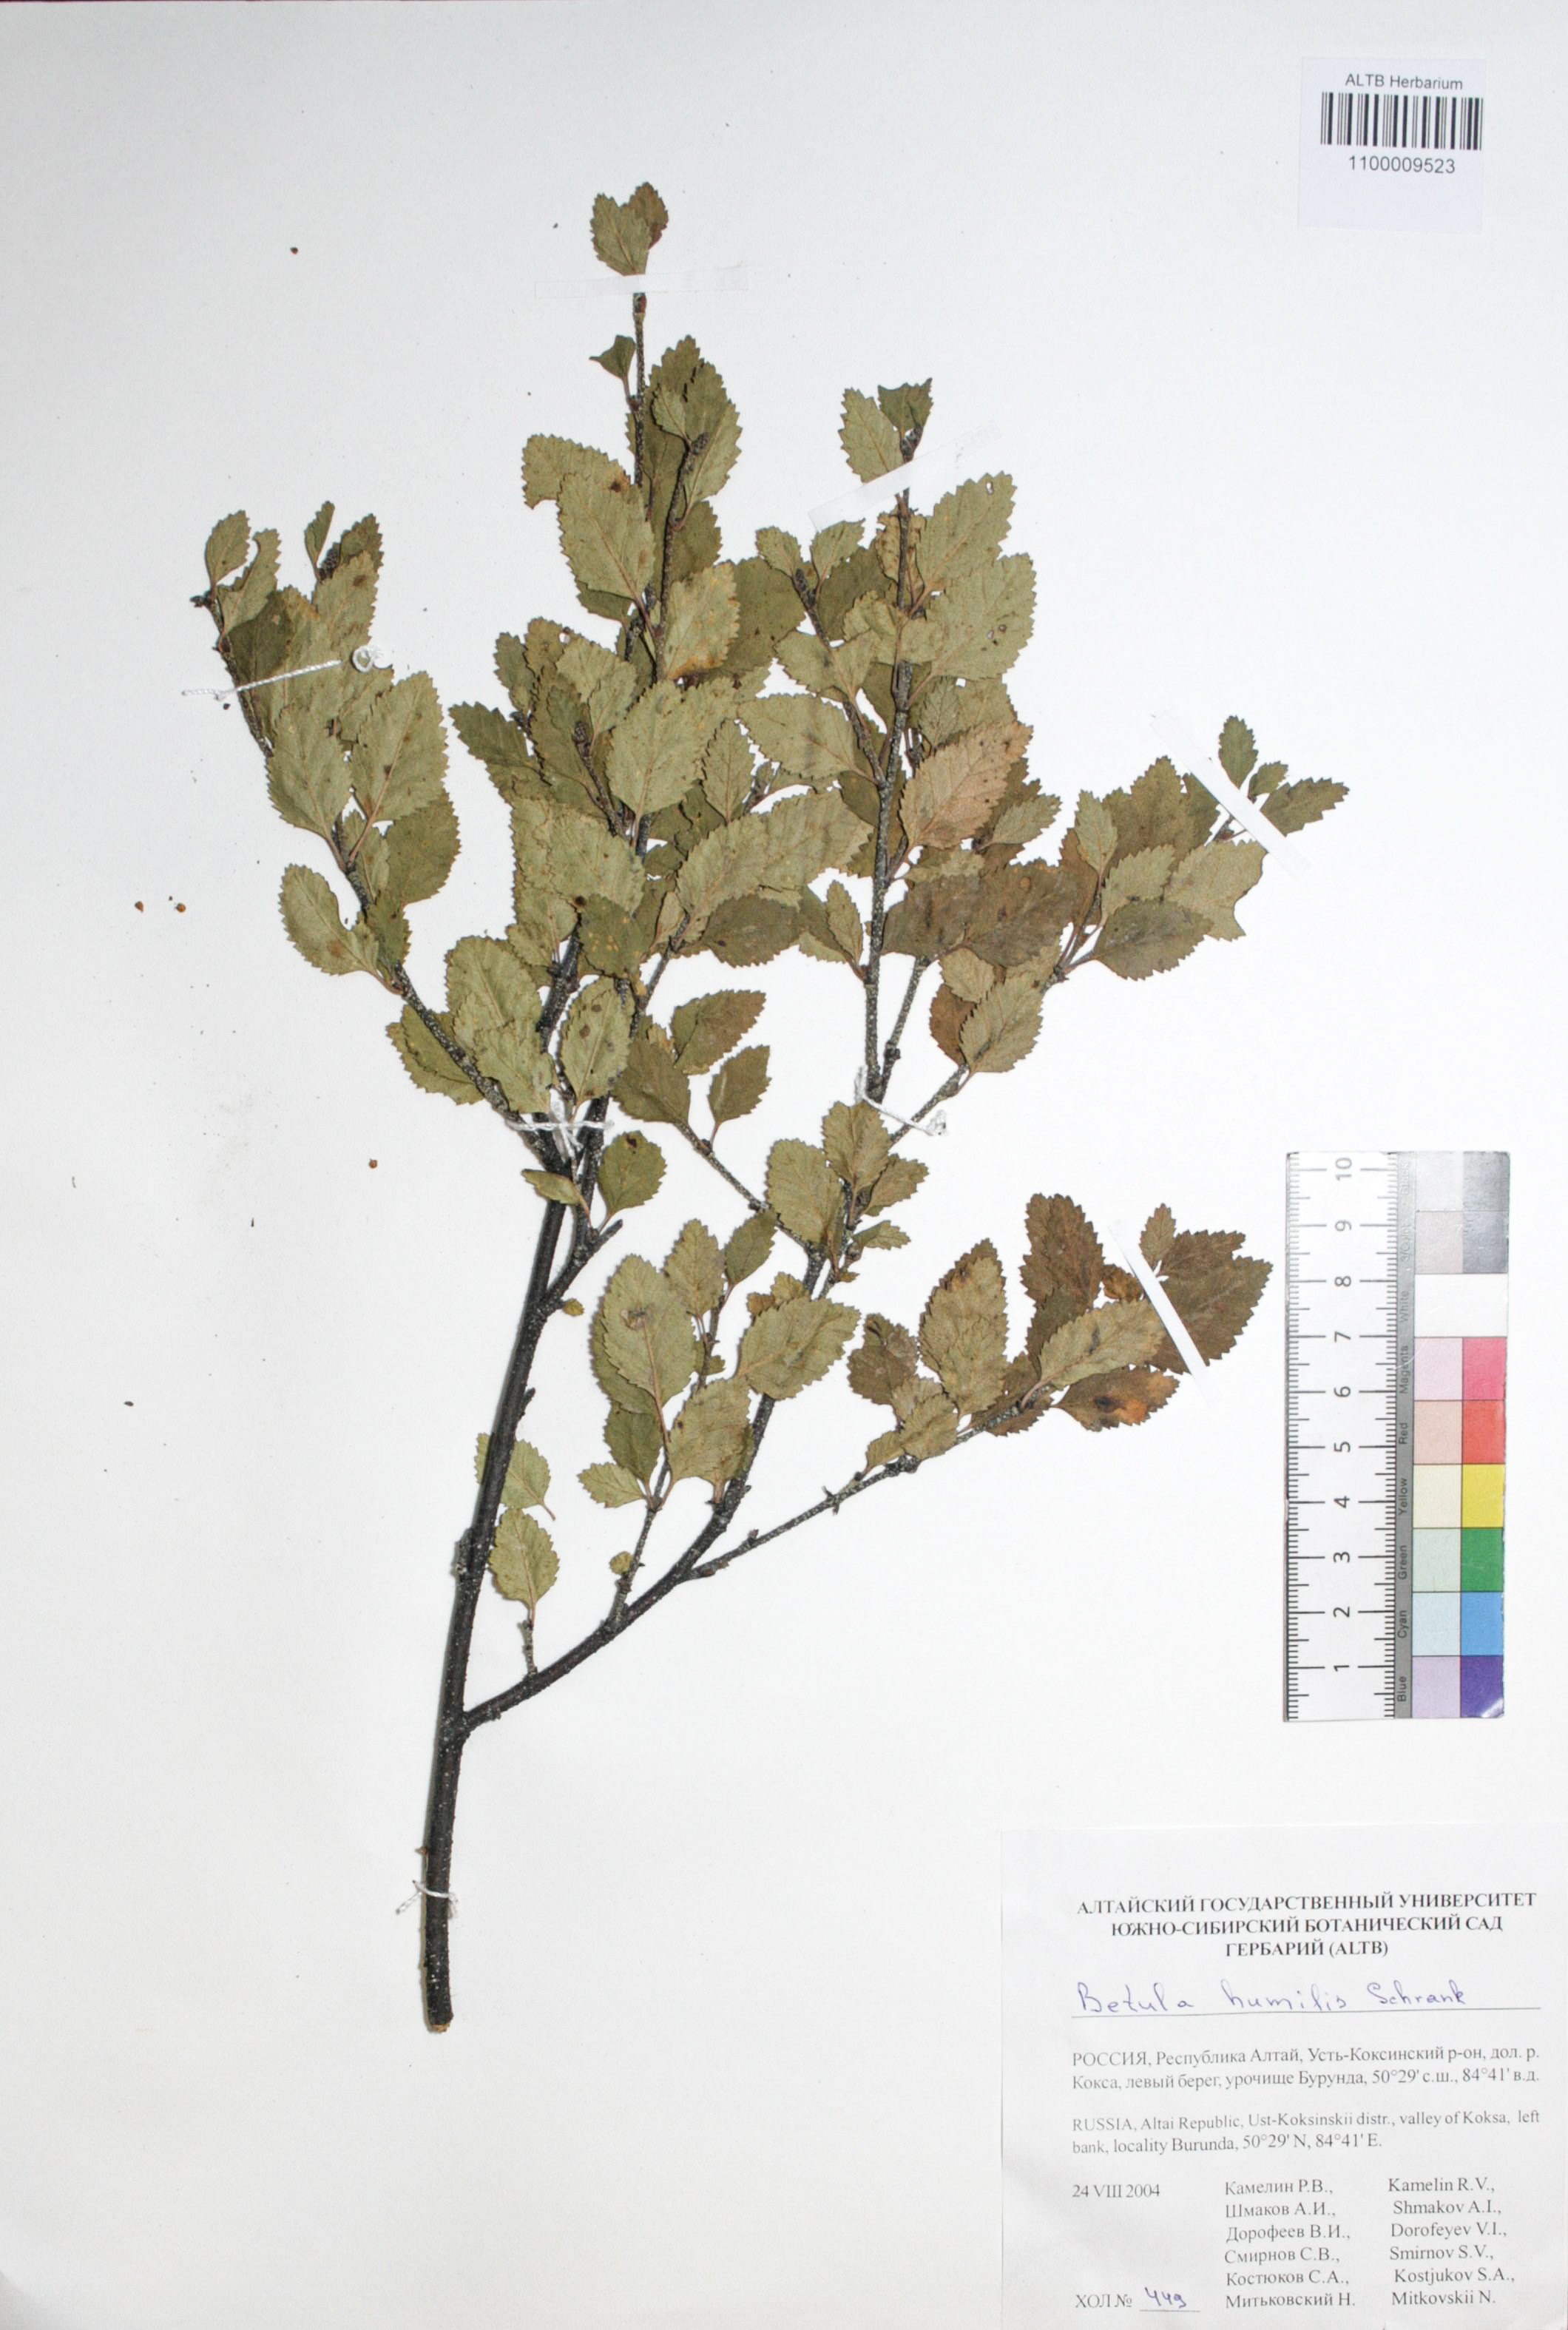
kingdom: Plantae
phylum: Tracheophyta
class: Magnoliopsida
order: Fagales
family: Betulaceae
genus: Betula
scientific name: Betula humilis
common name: Shrubby birch
